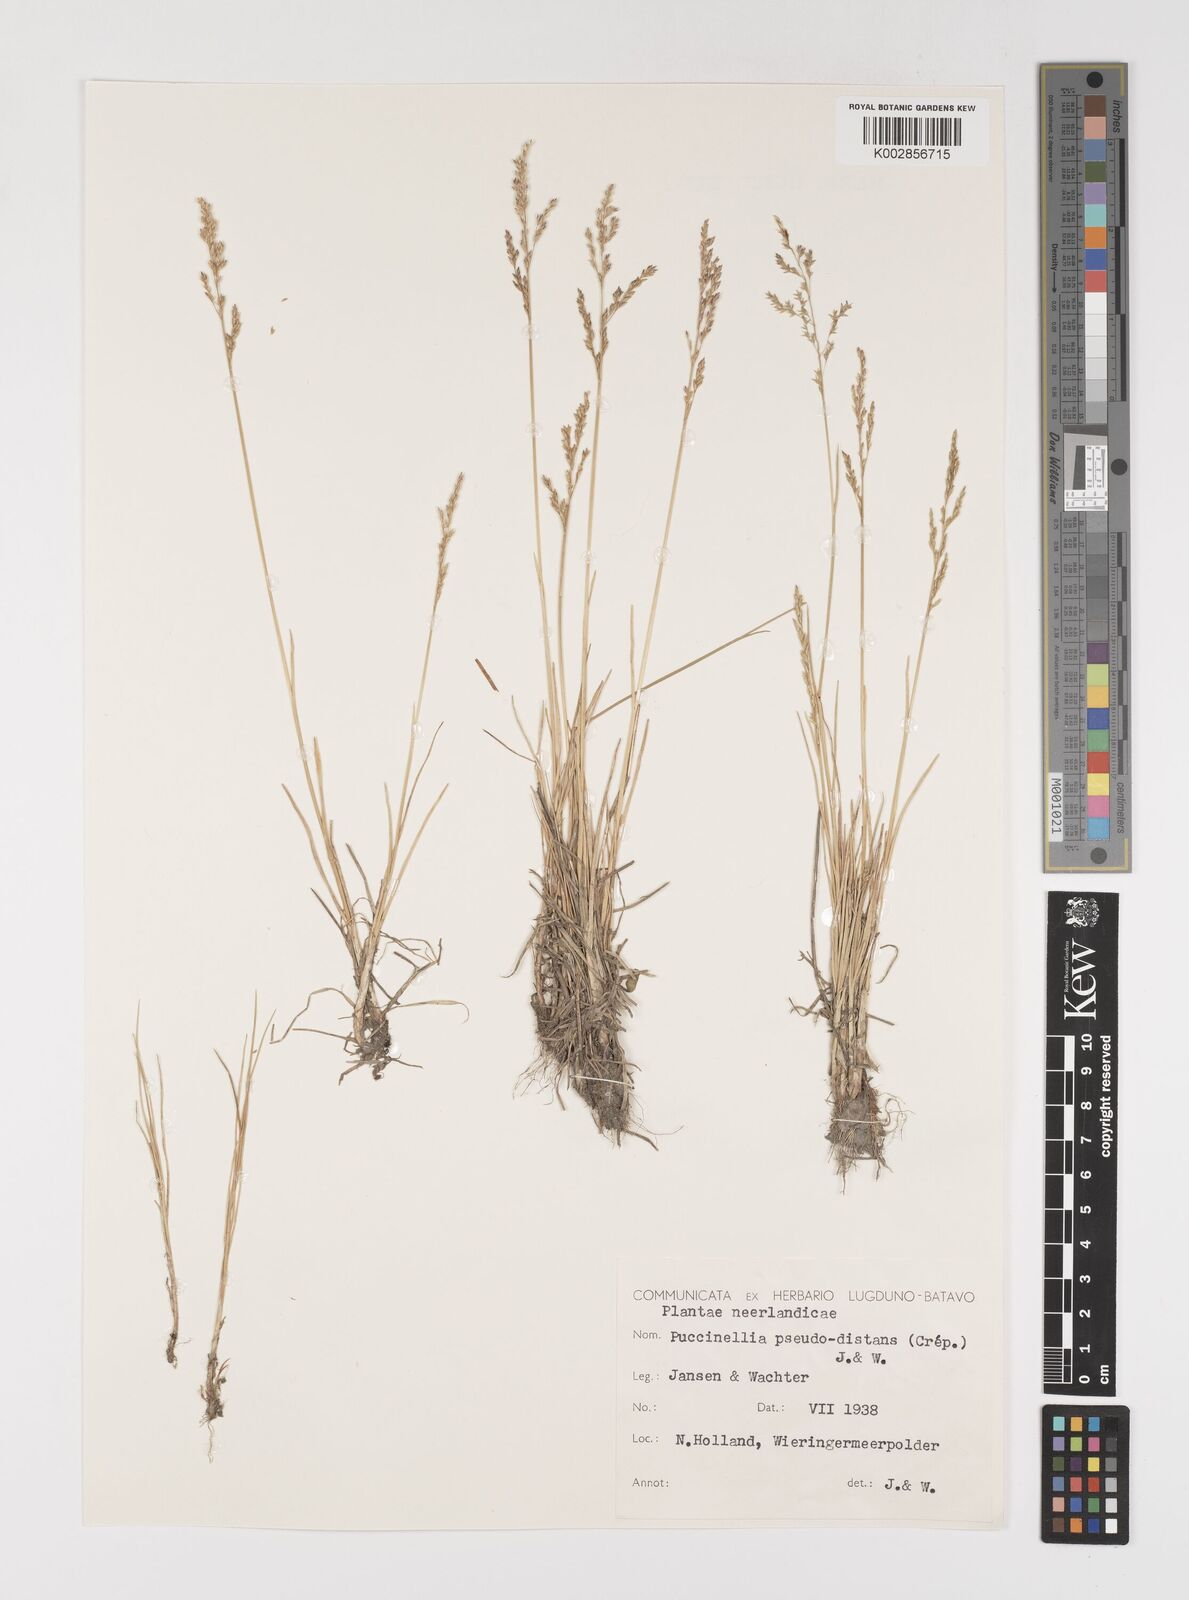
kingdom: Plantae
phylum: Tracheophyta
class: Liliopsida
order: Poales
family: Poaceae
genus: Puccinellia
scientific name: Puccinellia
